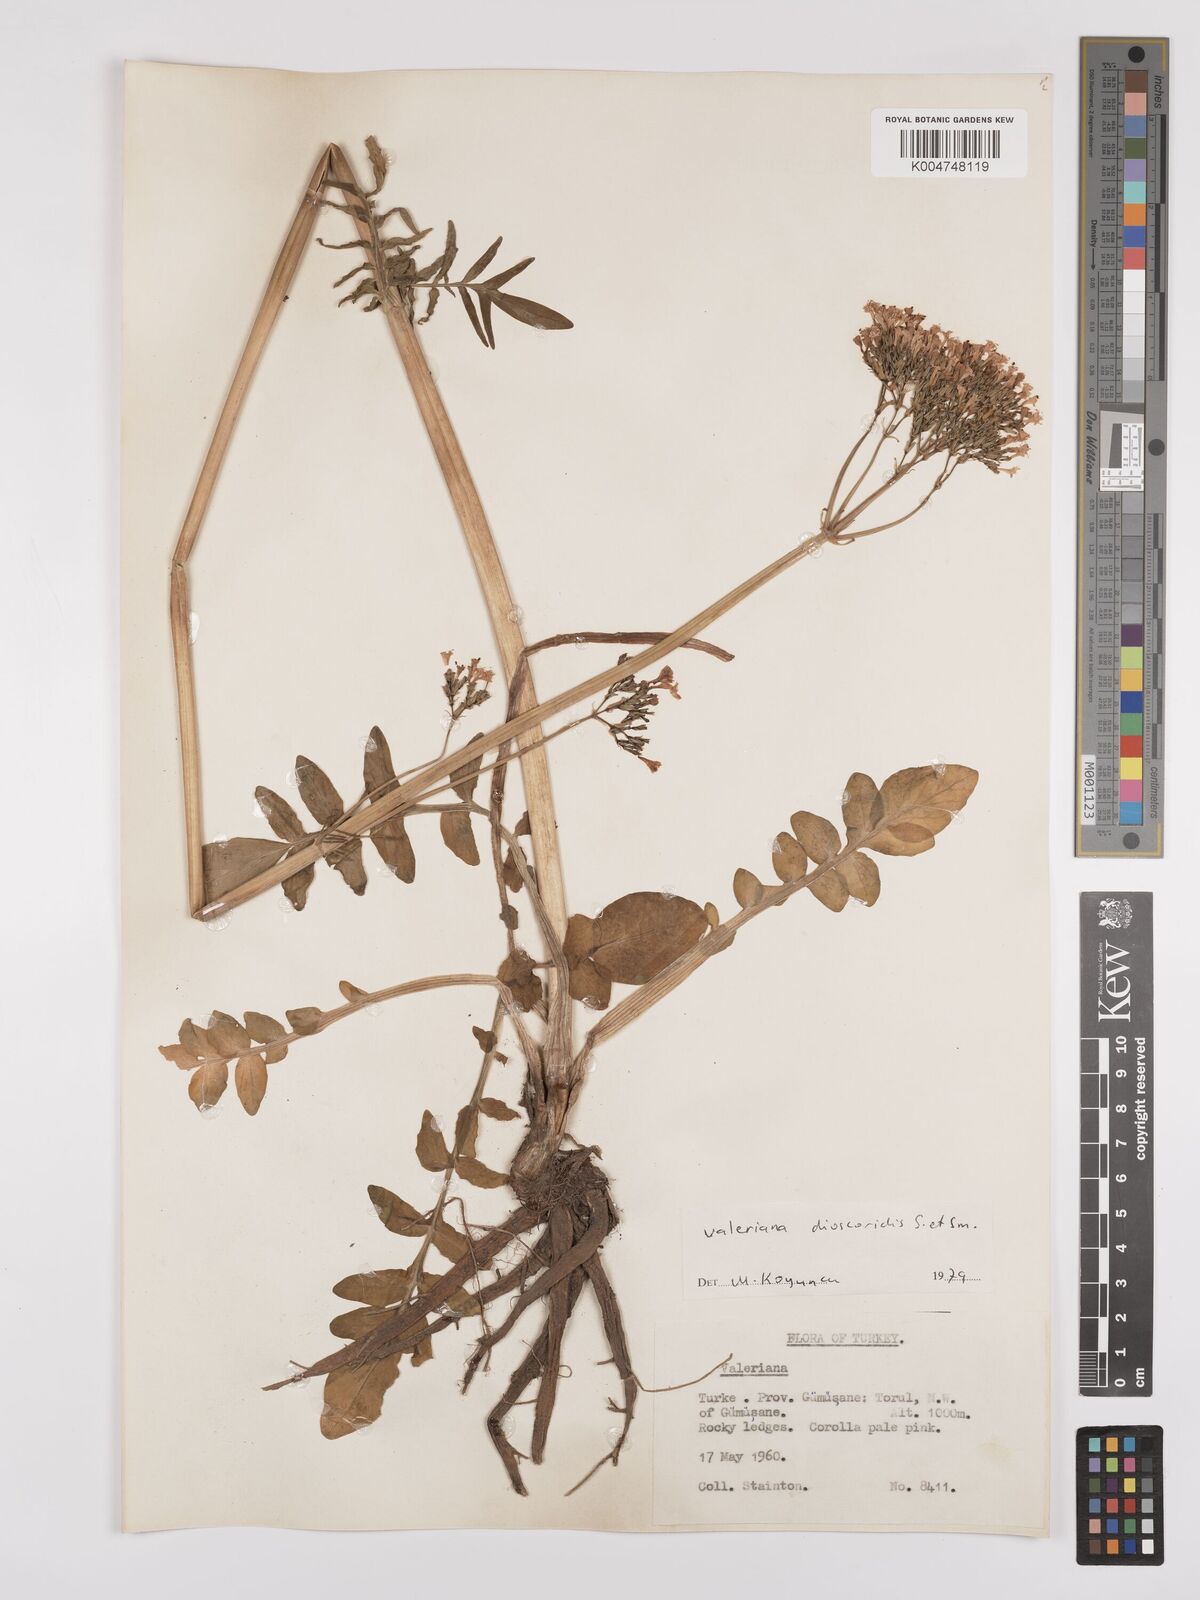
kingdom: Plantae
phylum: Tracheophyta
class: Magnoliopsida
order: Dipsacales
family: Caprifoliaceae
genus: Valeriana
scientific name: Valeriana
